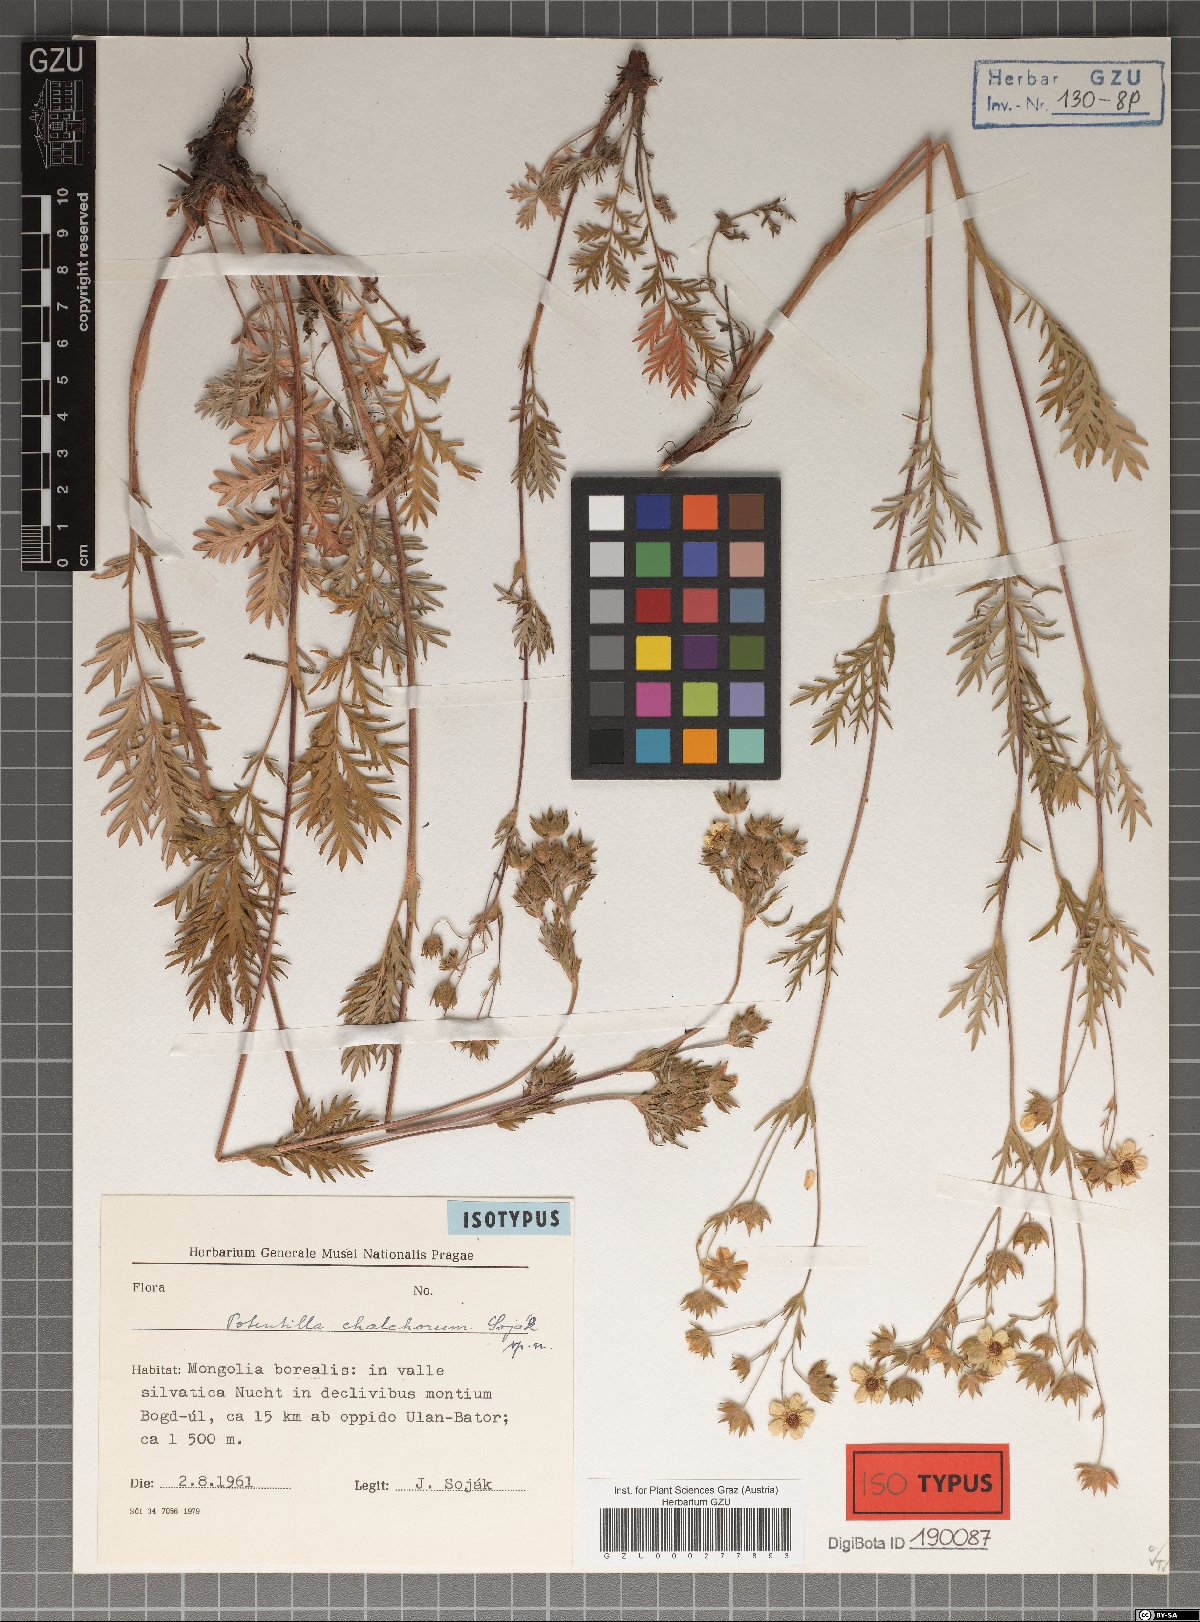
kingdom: Plantae
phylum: Tracheophyta
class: Magnoliopsida
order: Rosales
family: Rosaceae
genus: Potentilla
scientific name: Potentilla chalchorum
